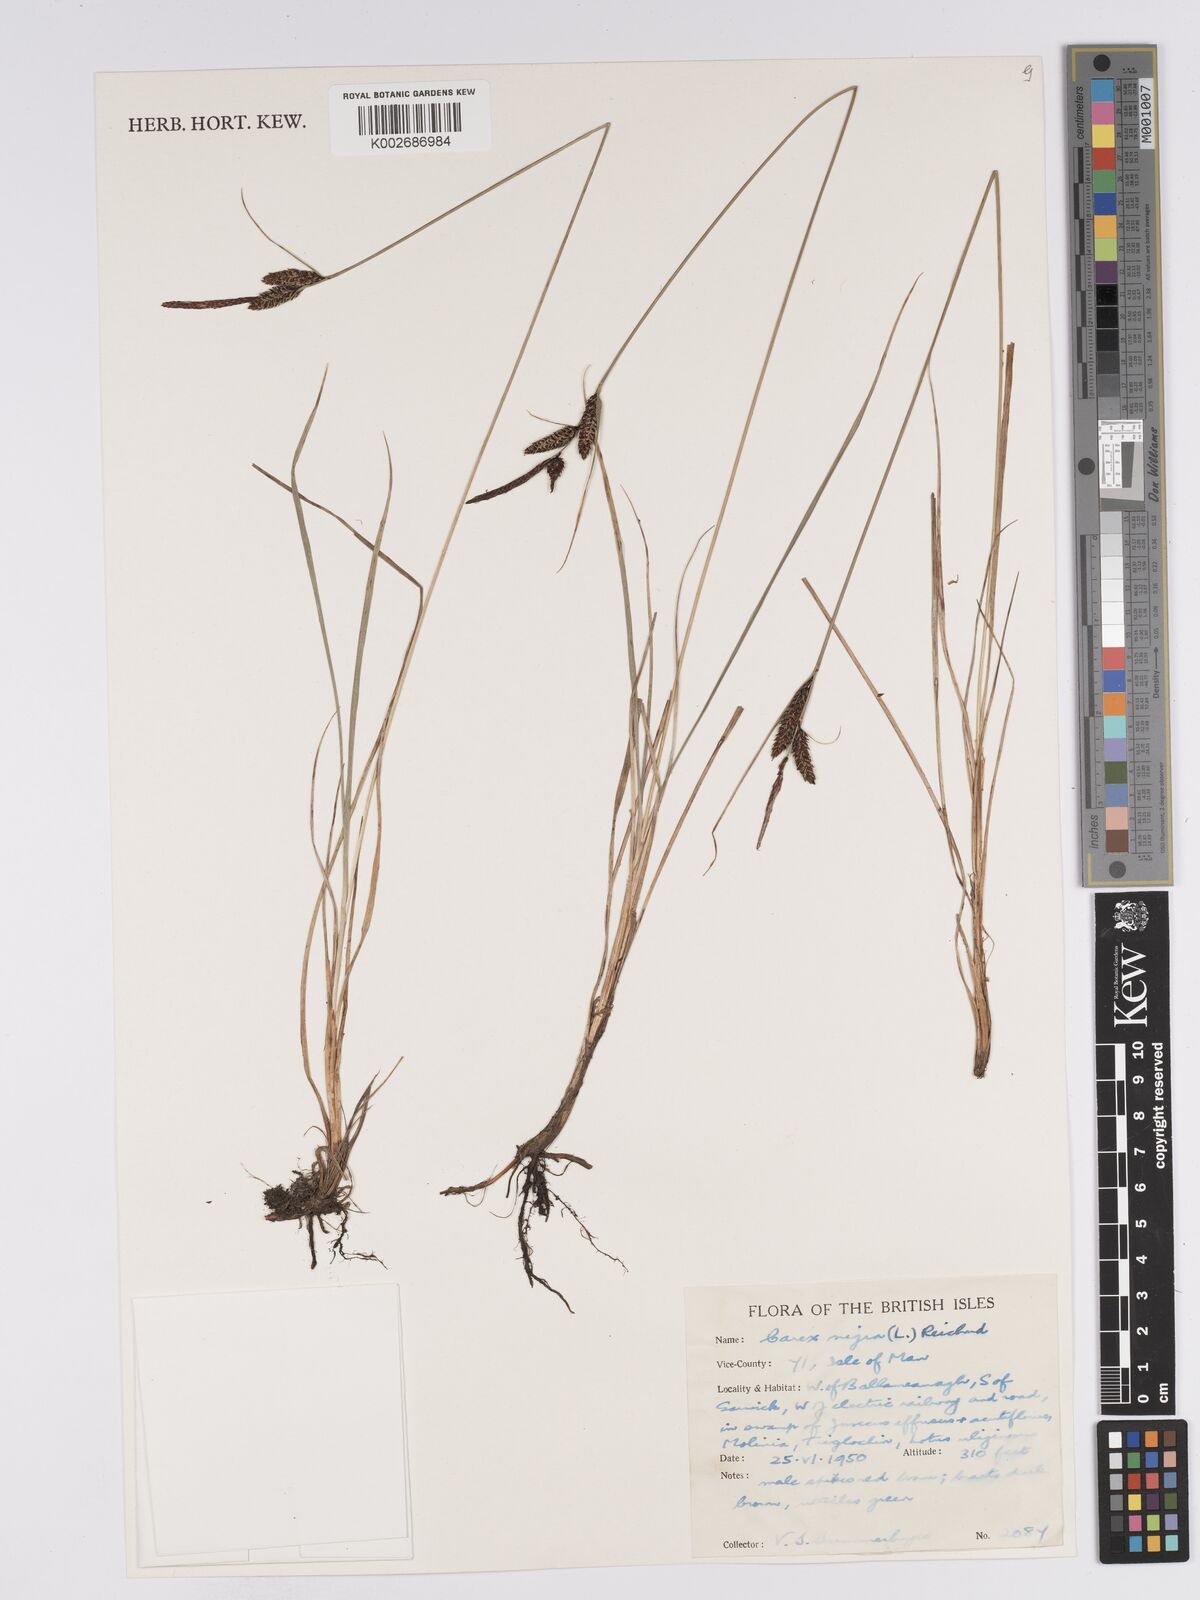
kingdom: Plantae
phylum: Tracheophyta
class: Liliopsida
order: Poales
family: Cyperaceae
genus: Carex
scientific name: Carex nigra
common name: Common sedge
